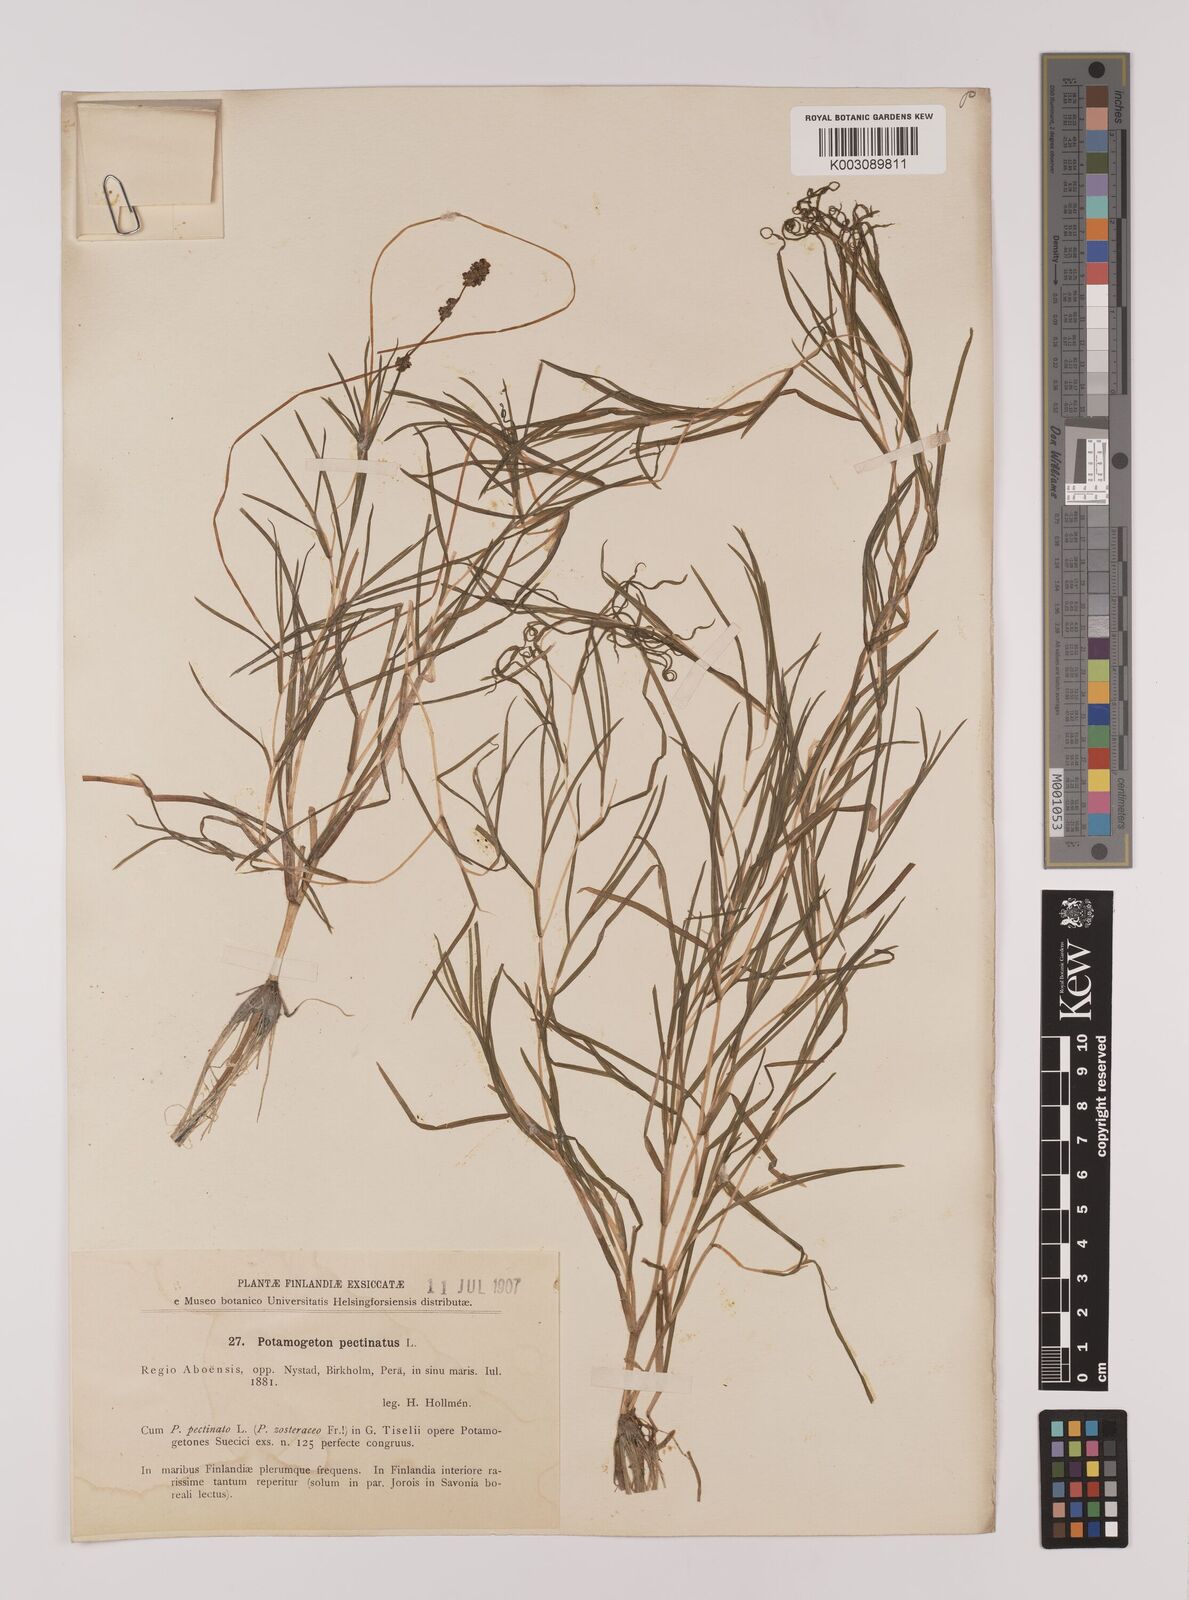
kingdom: Plantae
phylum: Tracheophyta
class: Liliopsida
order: Alismatales
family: Potamogetonaceae
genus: Stuckenia
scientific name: Stuckenia pectinata
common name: Sago pondweed
